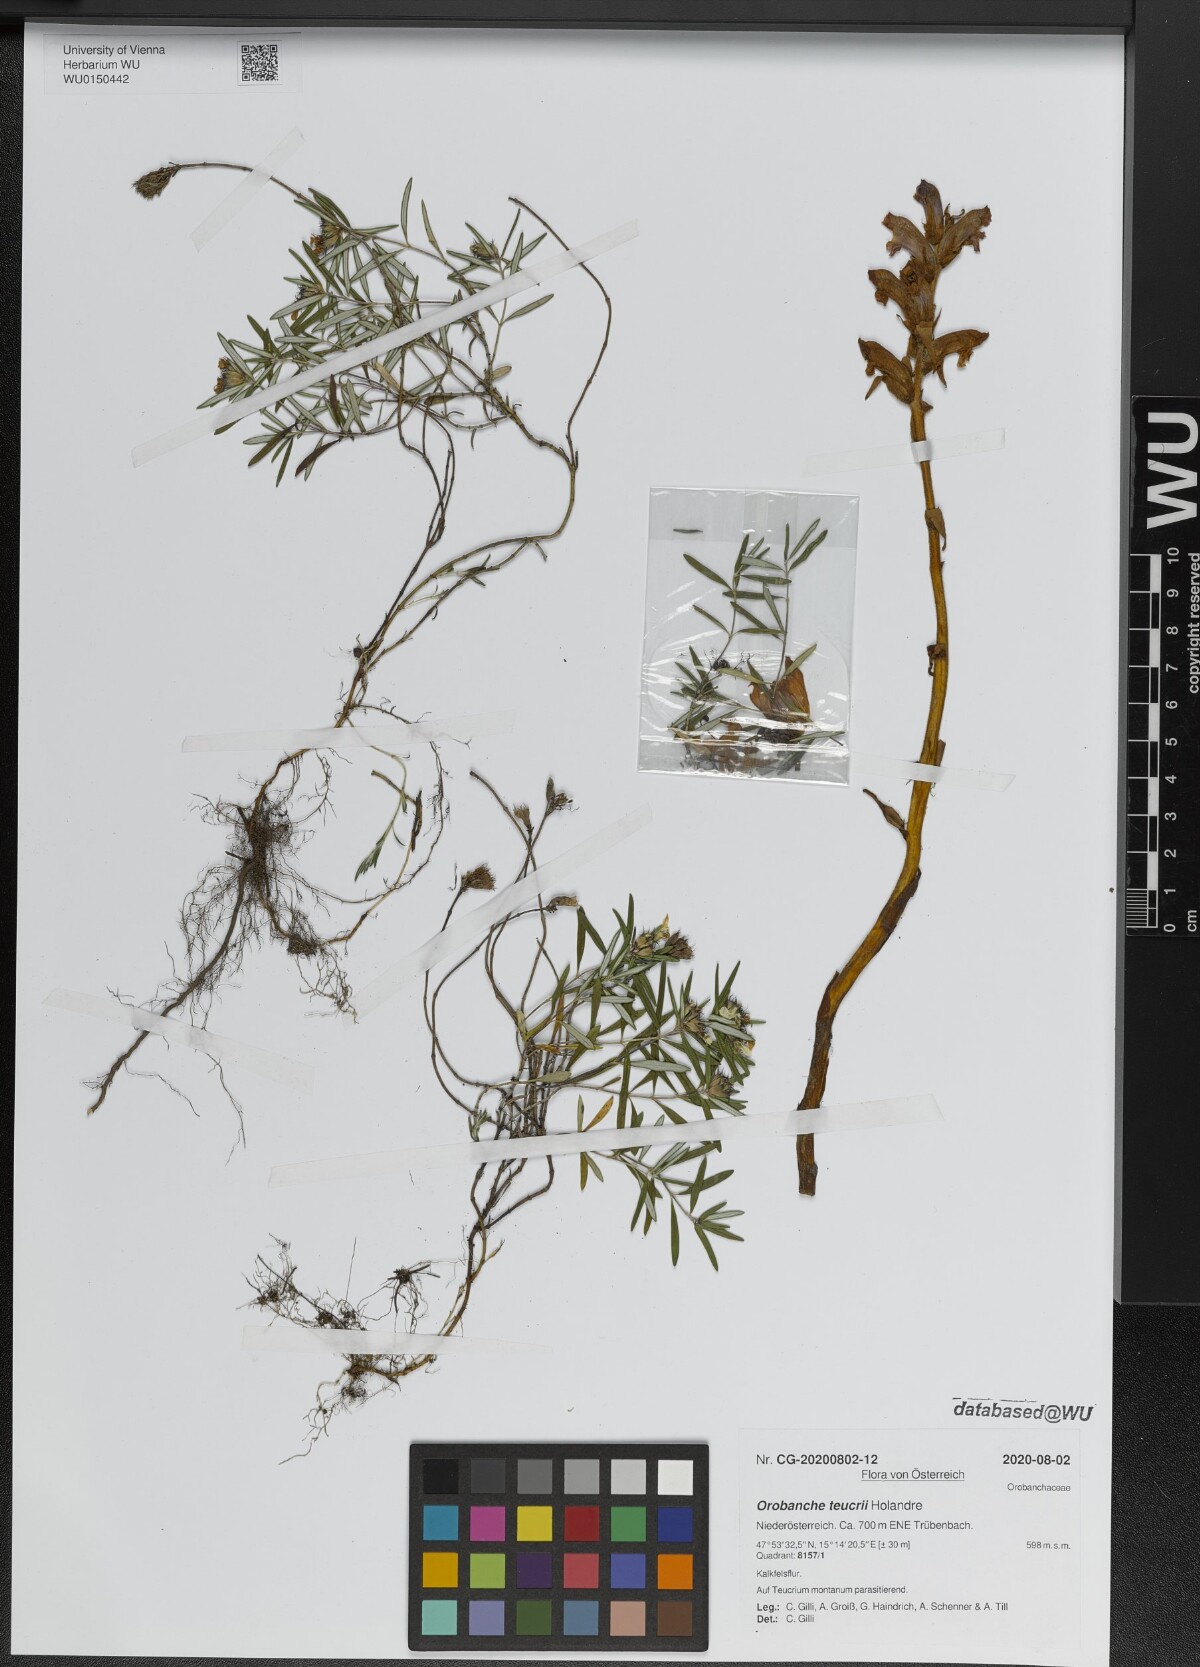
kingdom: Plantae
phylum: Tracheophyta
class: Magnoliopsida
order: Lamiales
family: Orobanchaceae
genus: Orobanche
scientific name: Orobanche teucrii
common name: Germander broomrape
